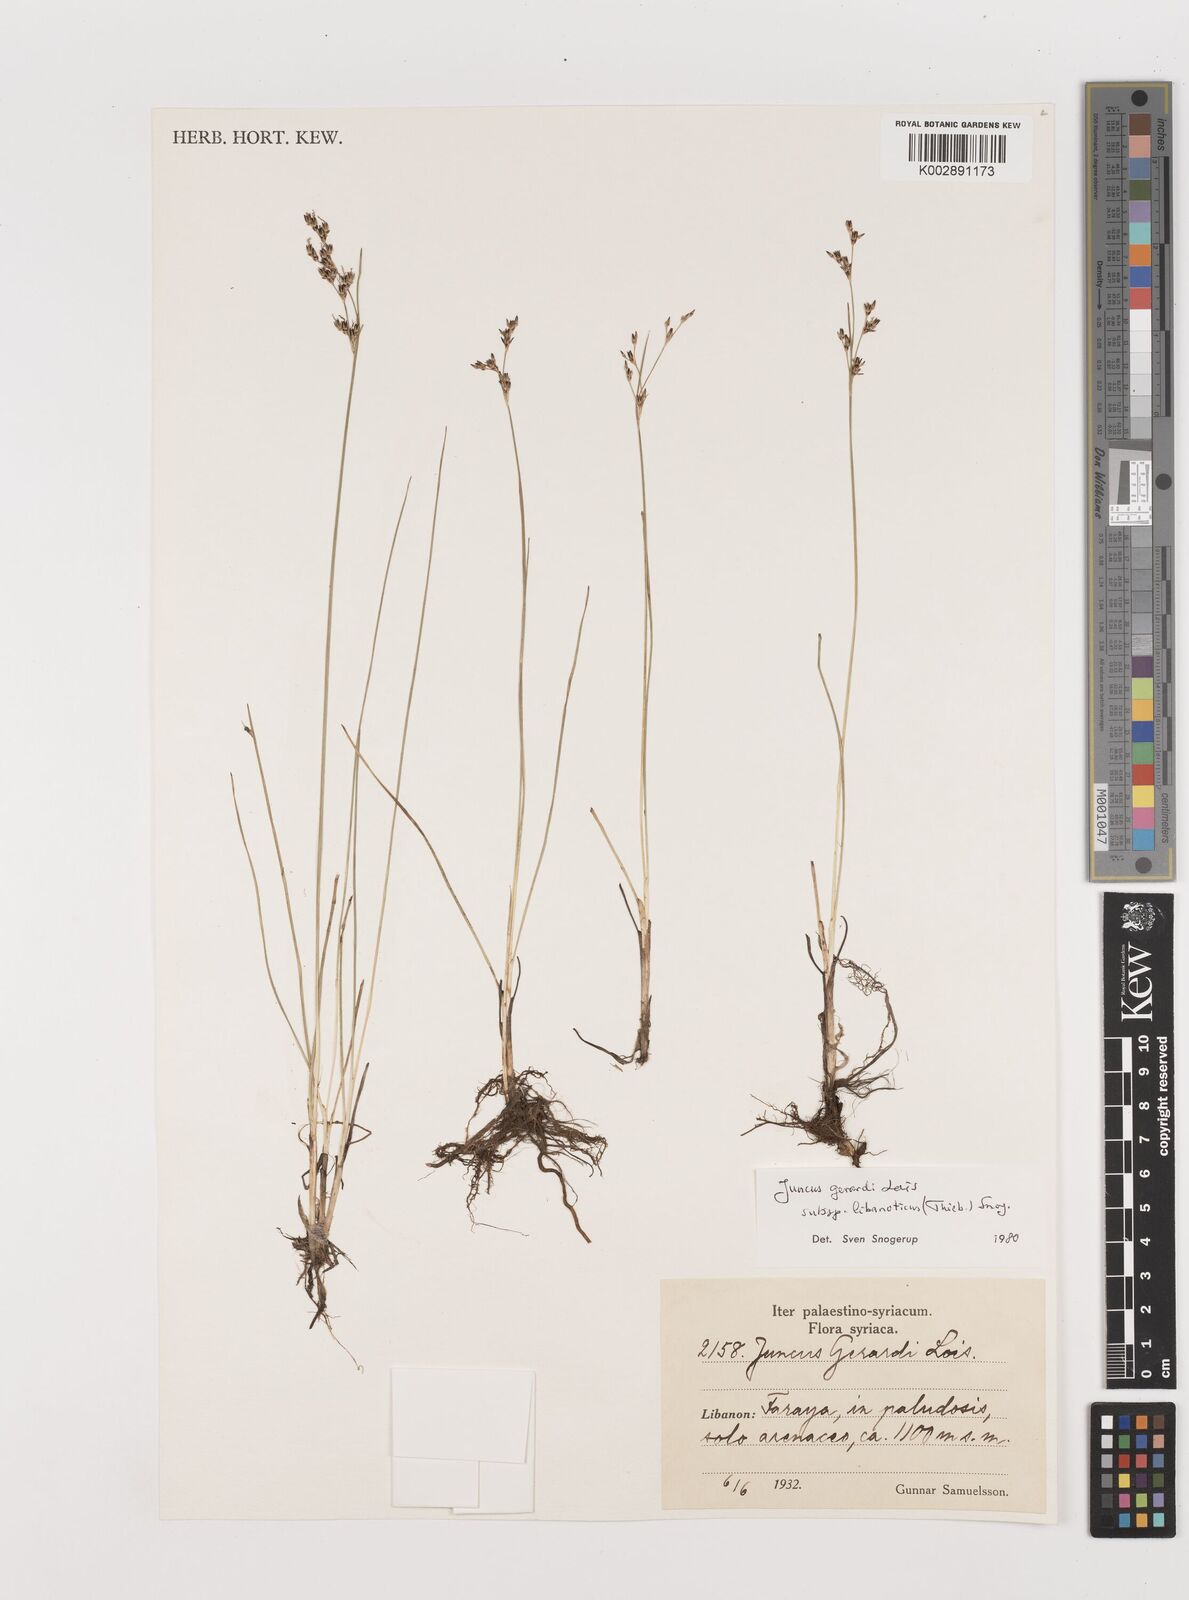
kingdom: Plantae
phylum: Tracheophyta
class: Liliopsida
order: Poales
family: Juncaceae
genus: Juncus
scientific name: Juncus persicus
